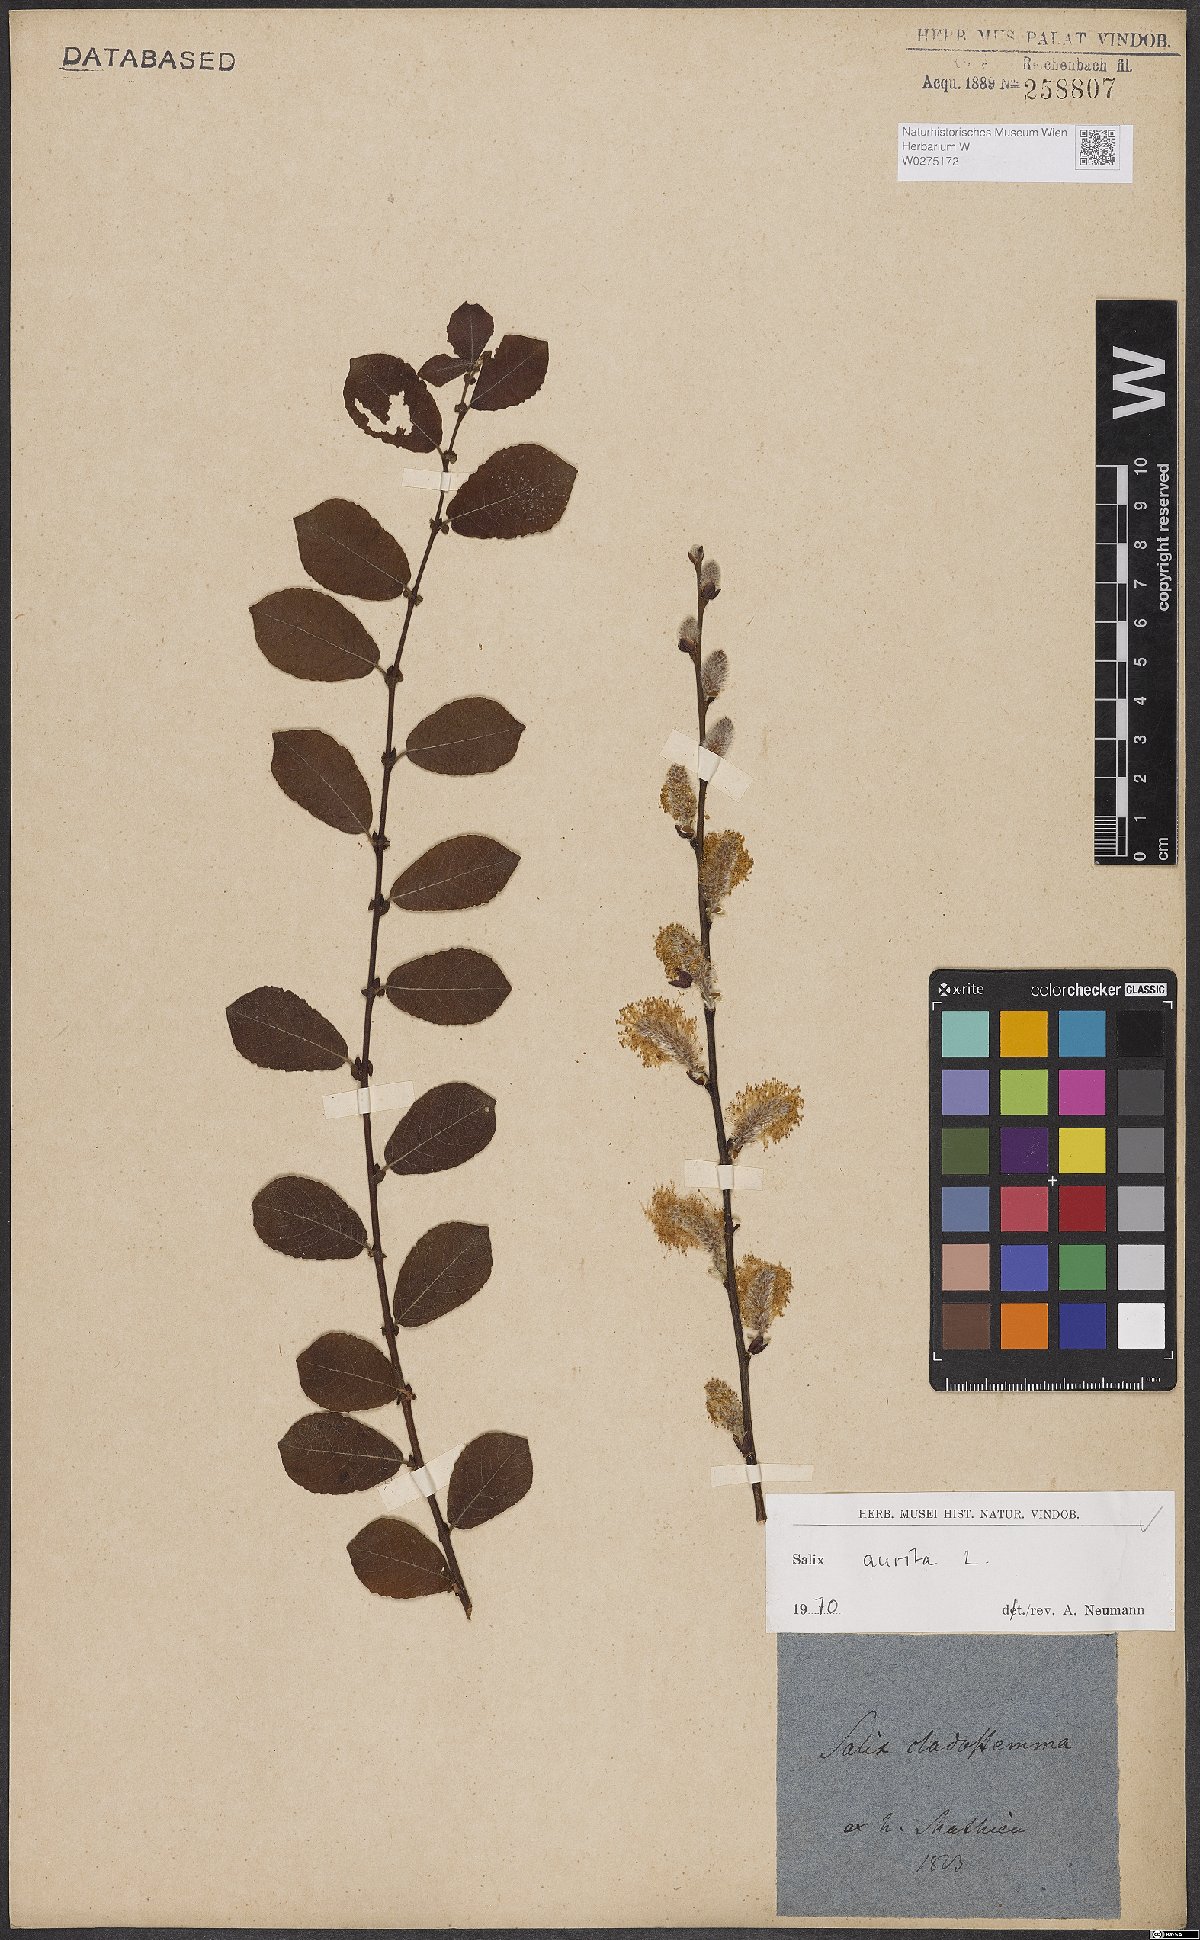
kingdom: Plantae
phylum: Tracheophyta
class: Magnoliopsida
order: Malpighiales
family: Salicaceae
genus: Salix
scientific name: Salix aurita
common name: Eared willow
